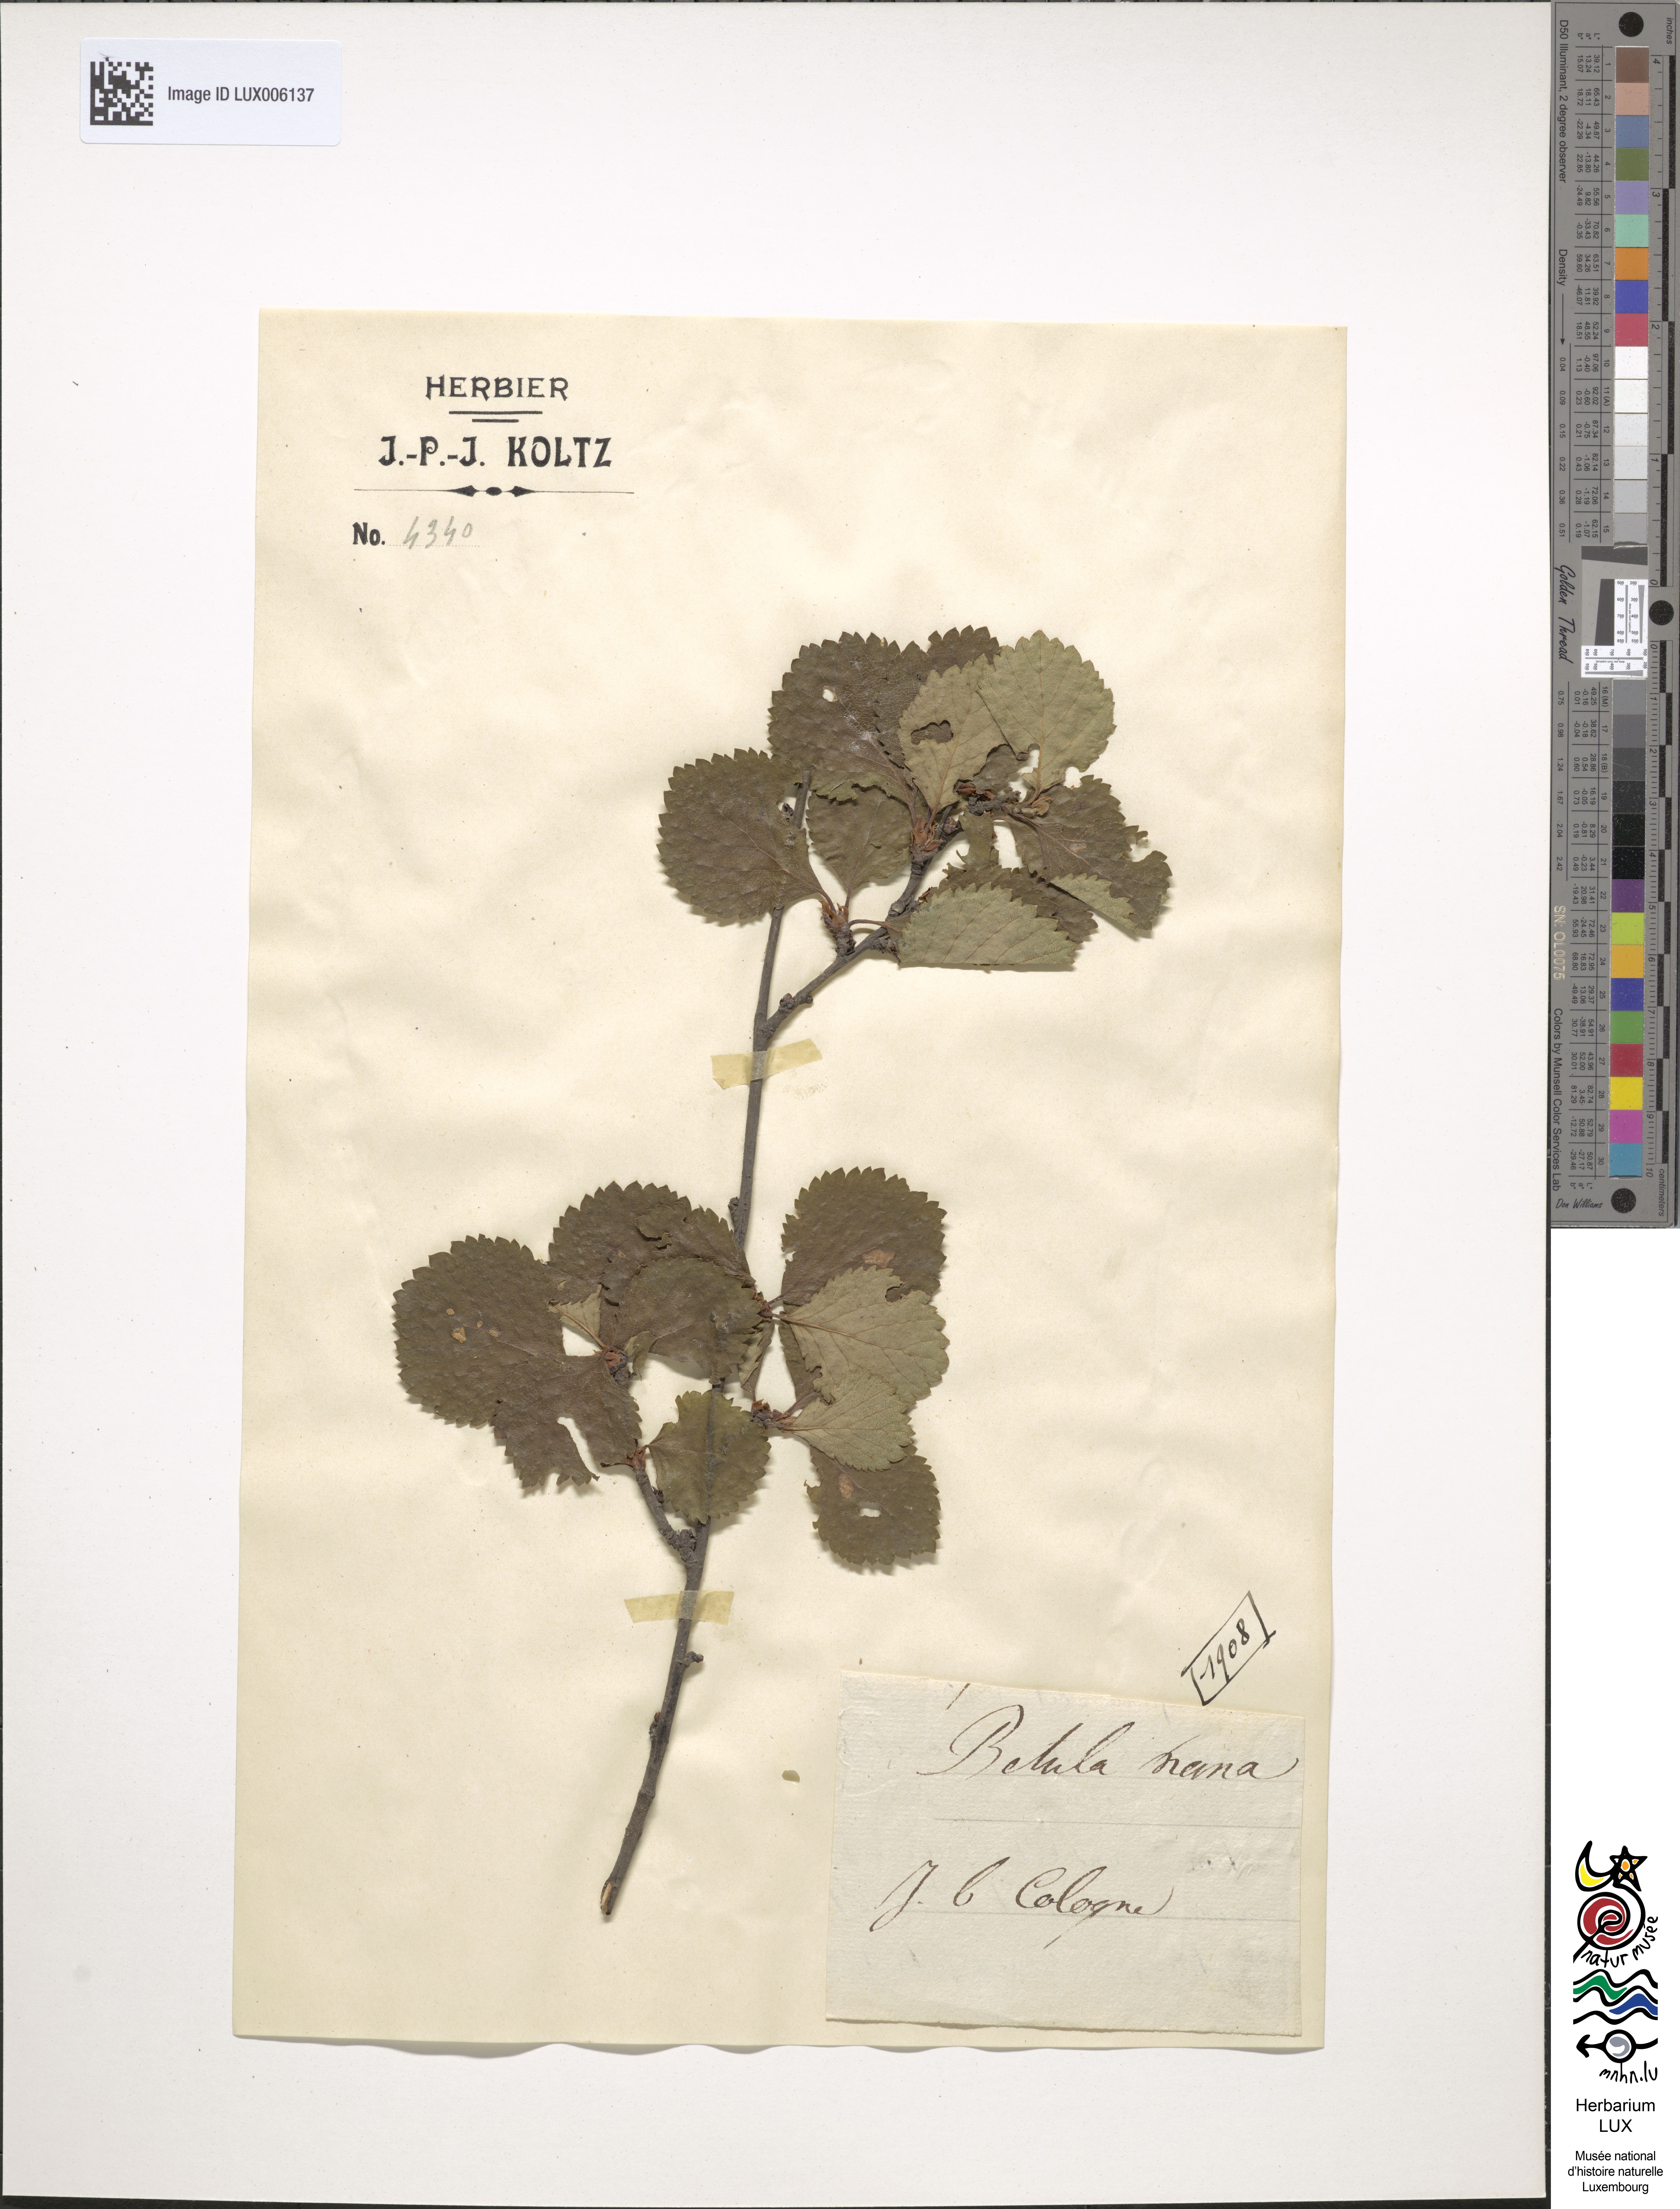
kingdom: Plantae
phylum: Tracheophyta
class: Magnoliopsida
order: Fagales
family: Betulaceae
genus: Betula
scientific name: Betula nana
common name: Arctic dwarf birch
